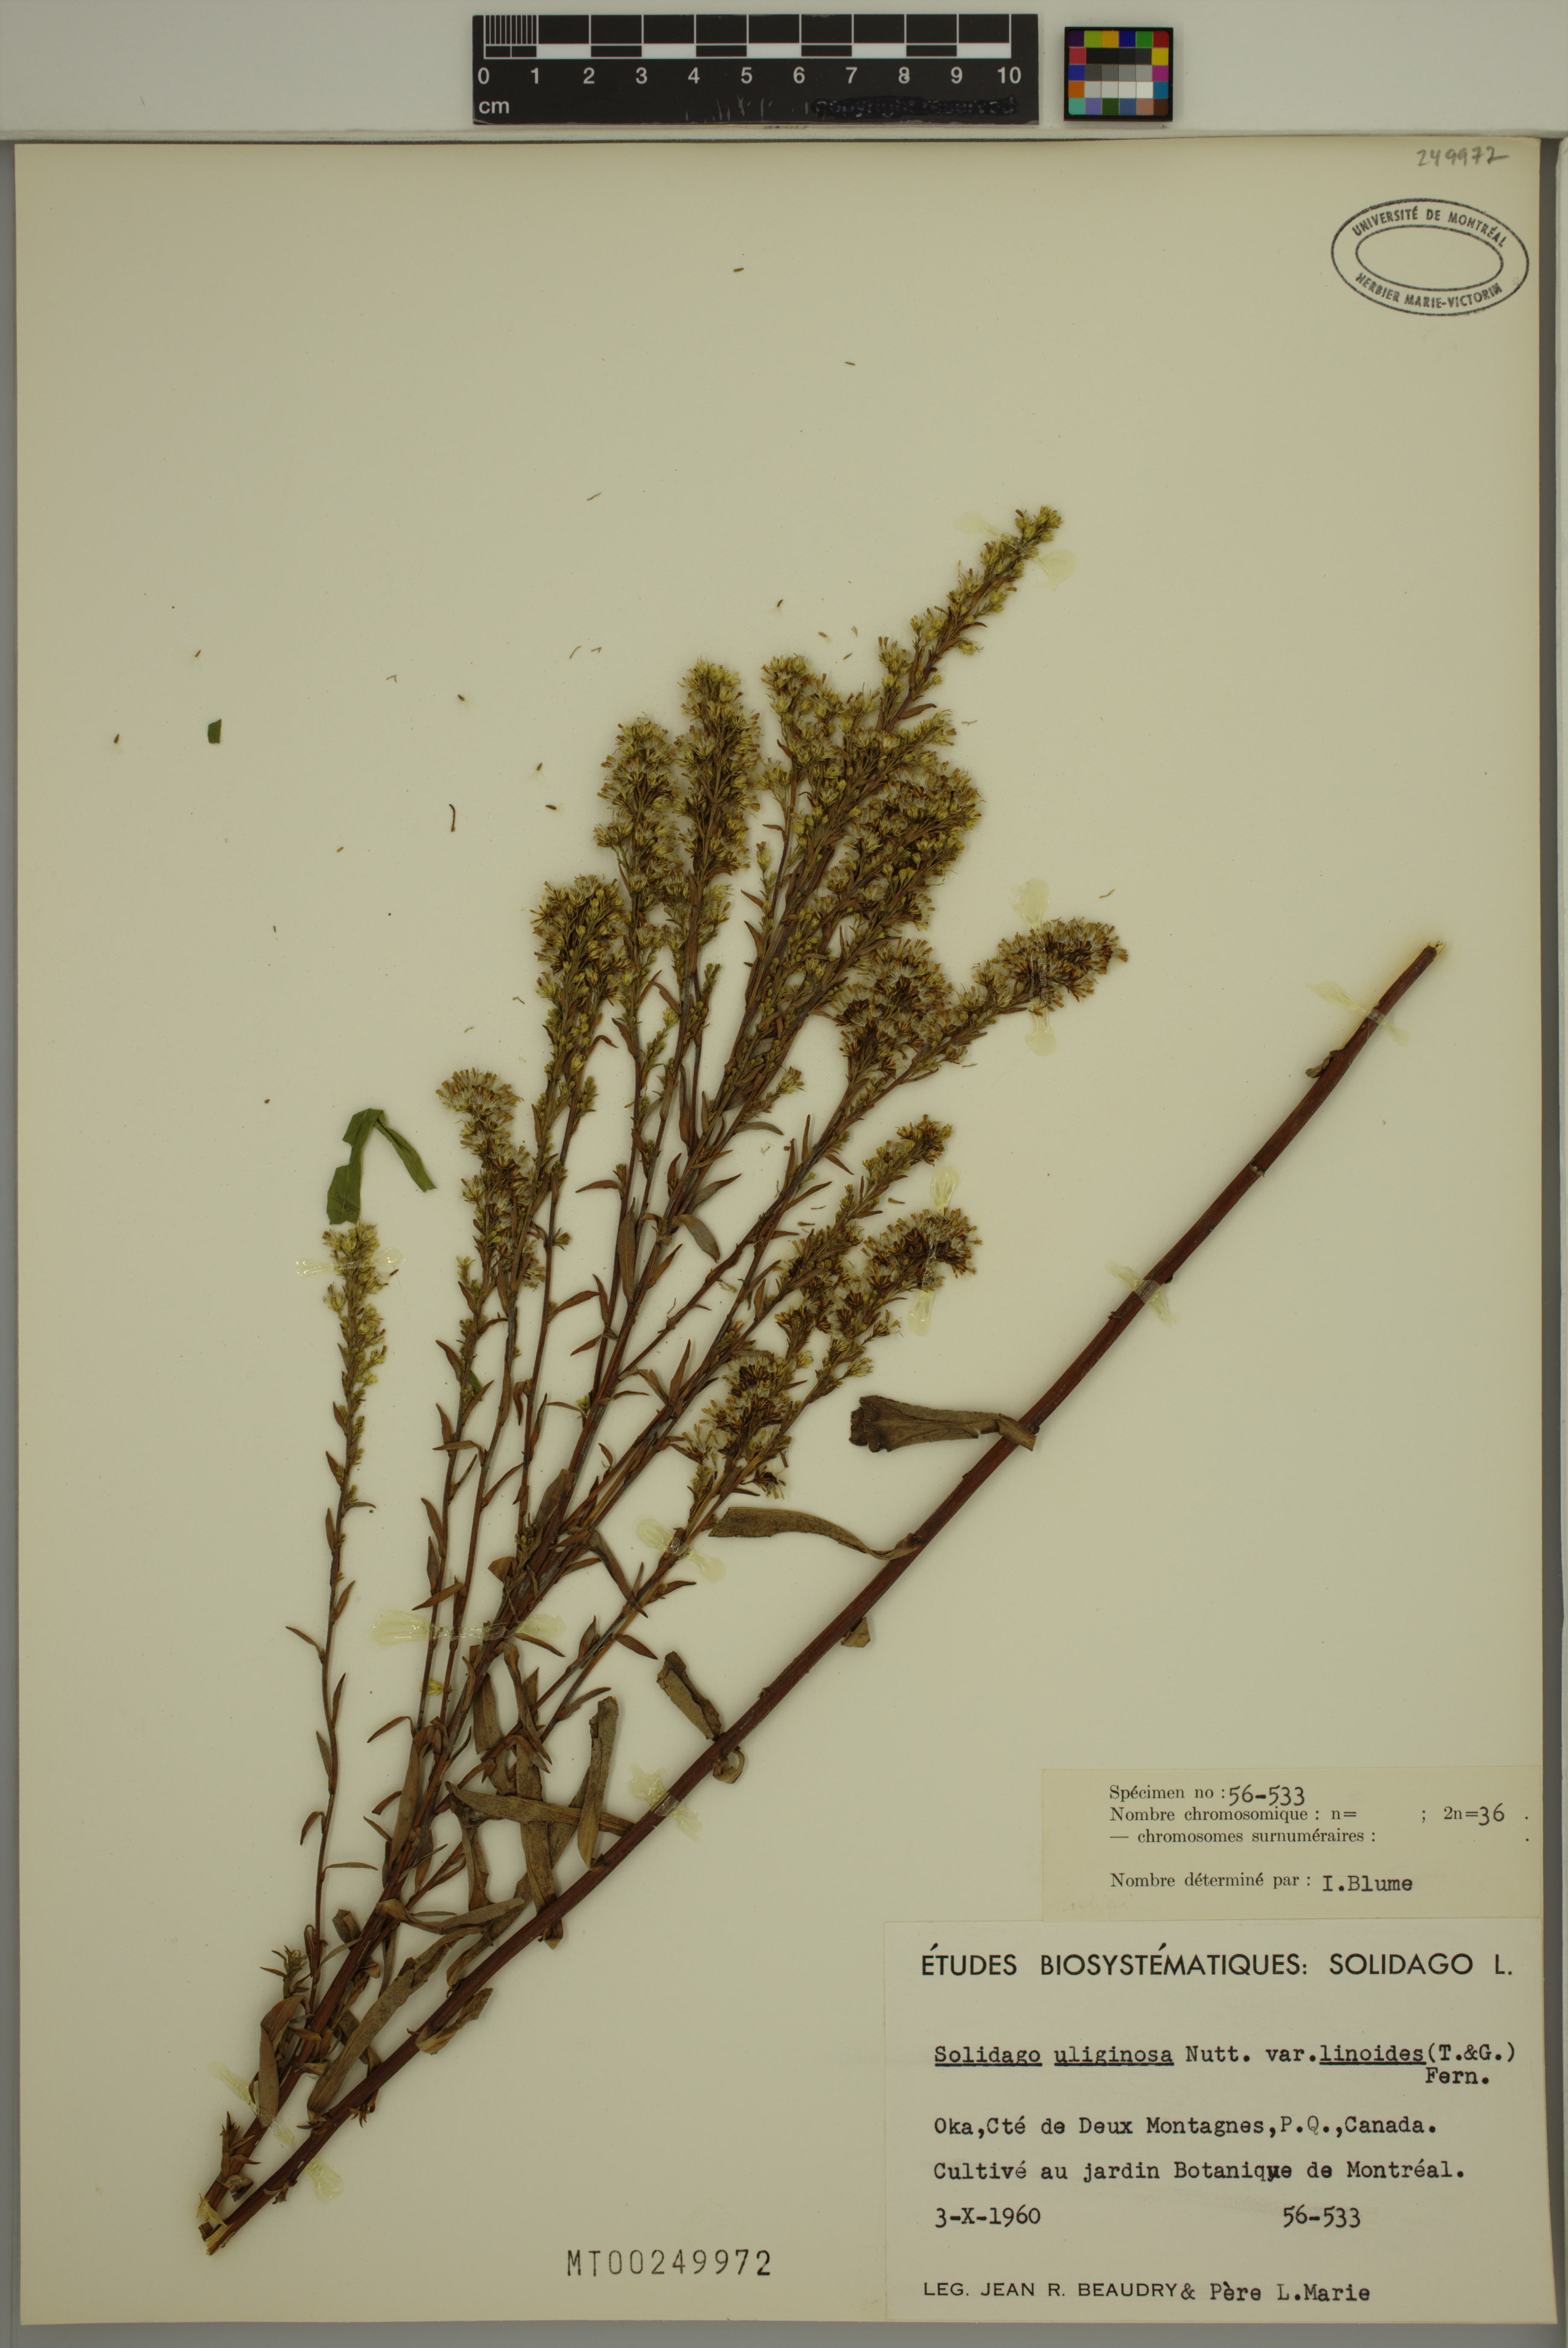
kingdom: Plantae
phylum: Tracheophyta
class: Magnoliopsida
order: Asterales
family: Asteraceae
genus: Solidago
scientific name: Solidago uliginosa
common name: Bog goldenrod
